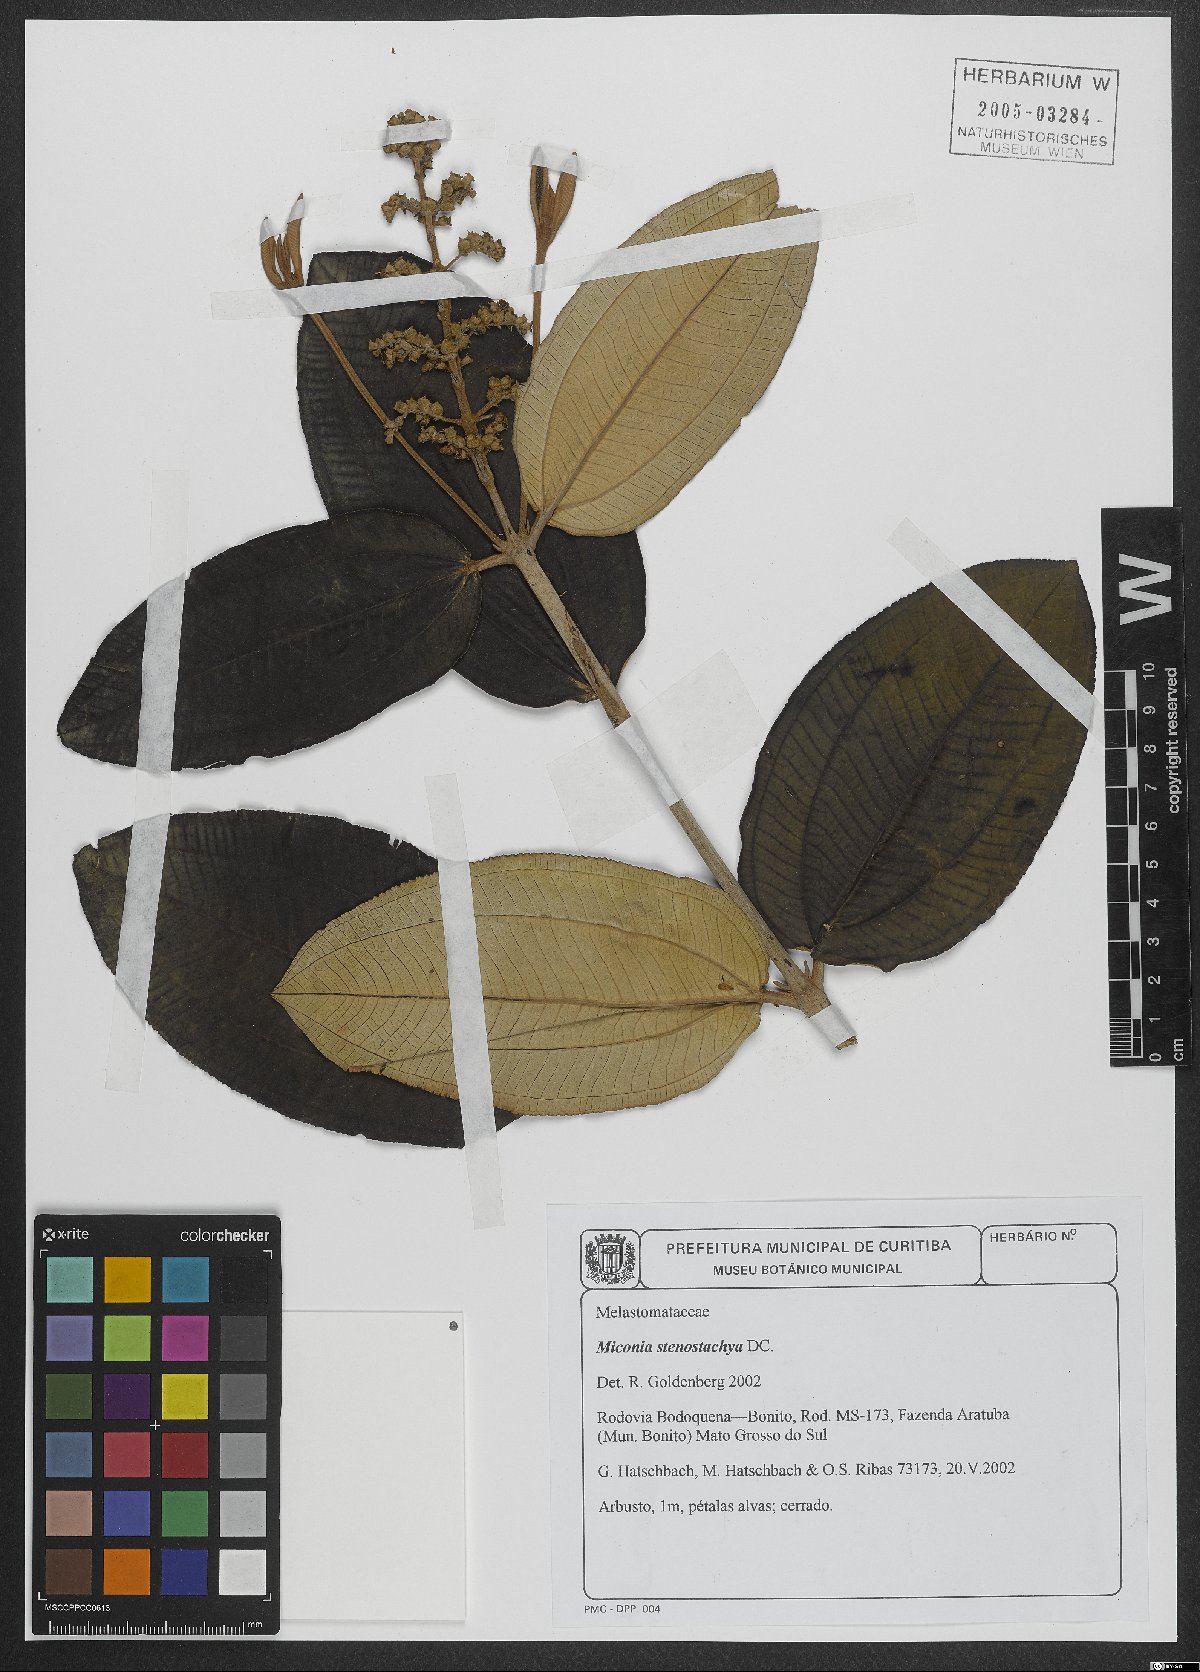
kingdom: Plantae
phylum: Tracheophyta
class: Magnoliopsida
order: Myrtales
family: Melastomataceae
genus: Miconia
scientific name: Miconia stenostachya
